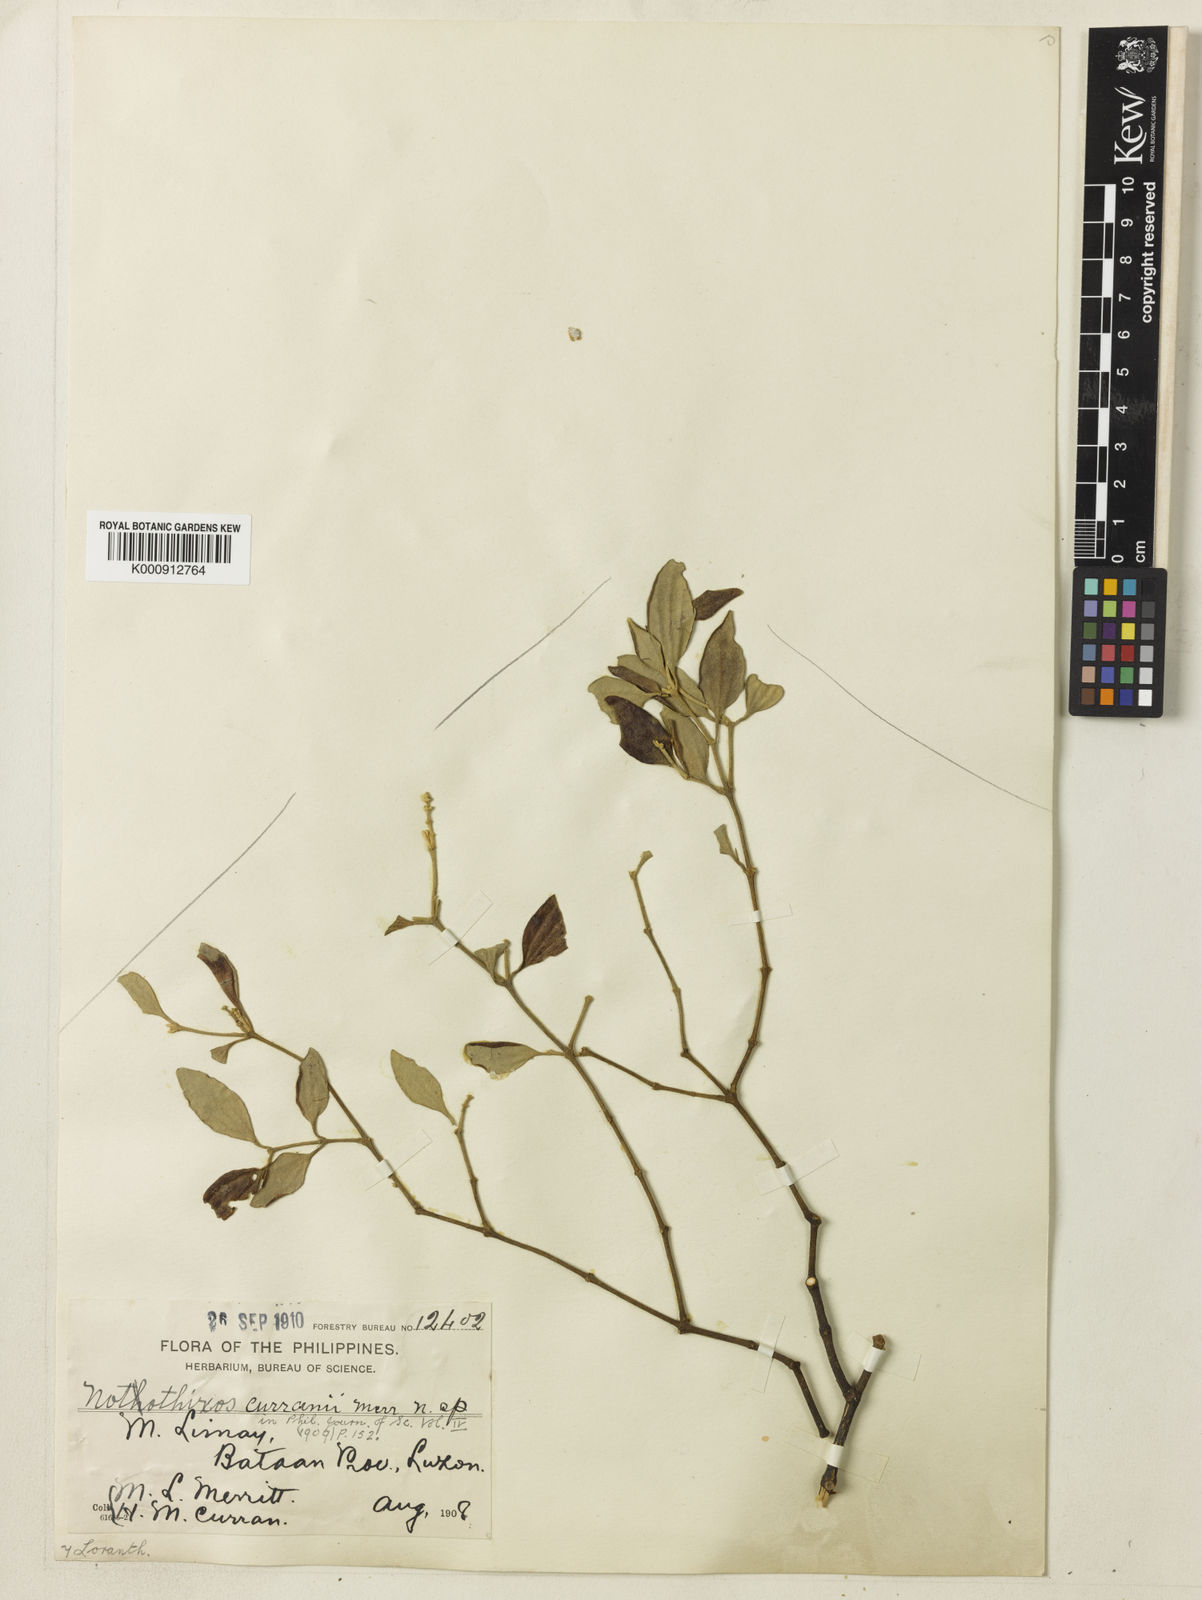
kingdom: Plantae
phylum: Tracheophyta
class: Magnoliopsida
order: Santalales
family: Viscaceae
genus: Notothixos
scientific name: Notothixos floccosus
